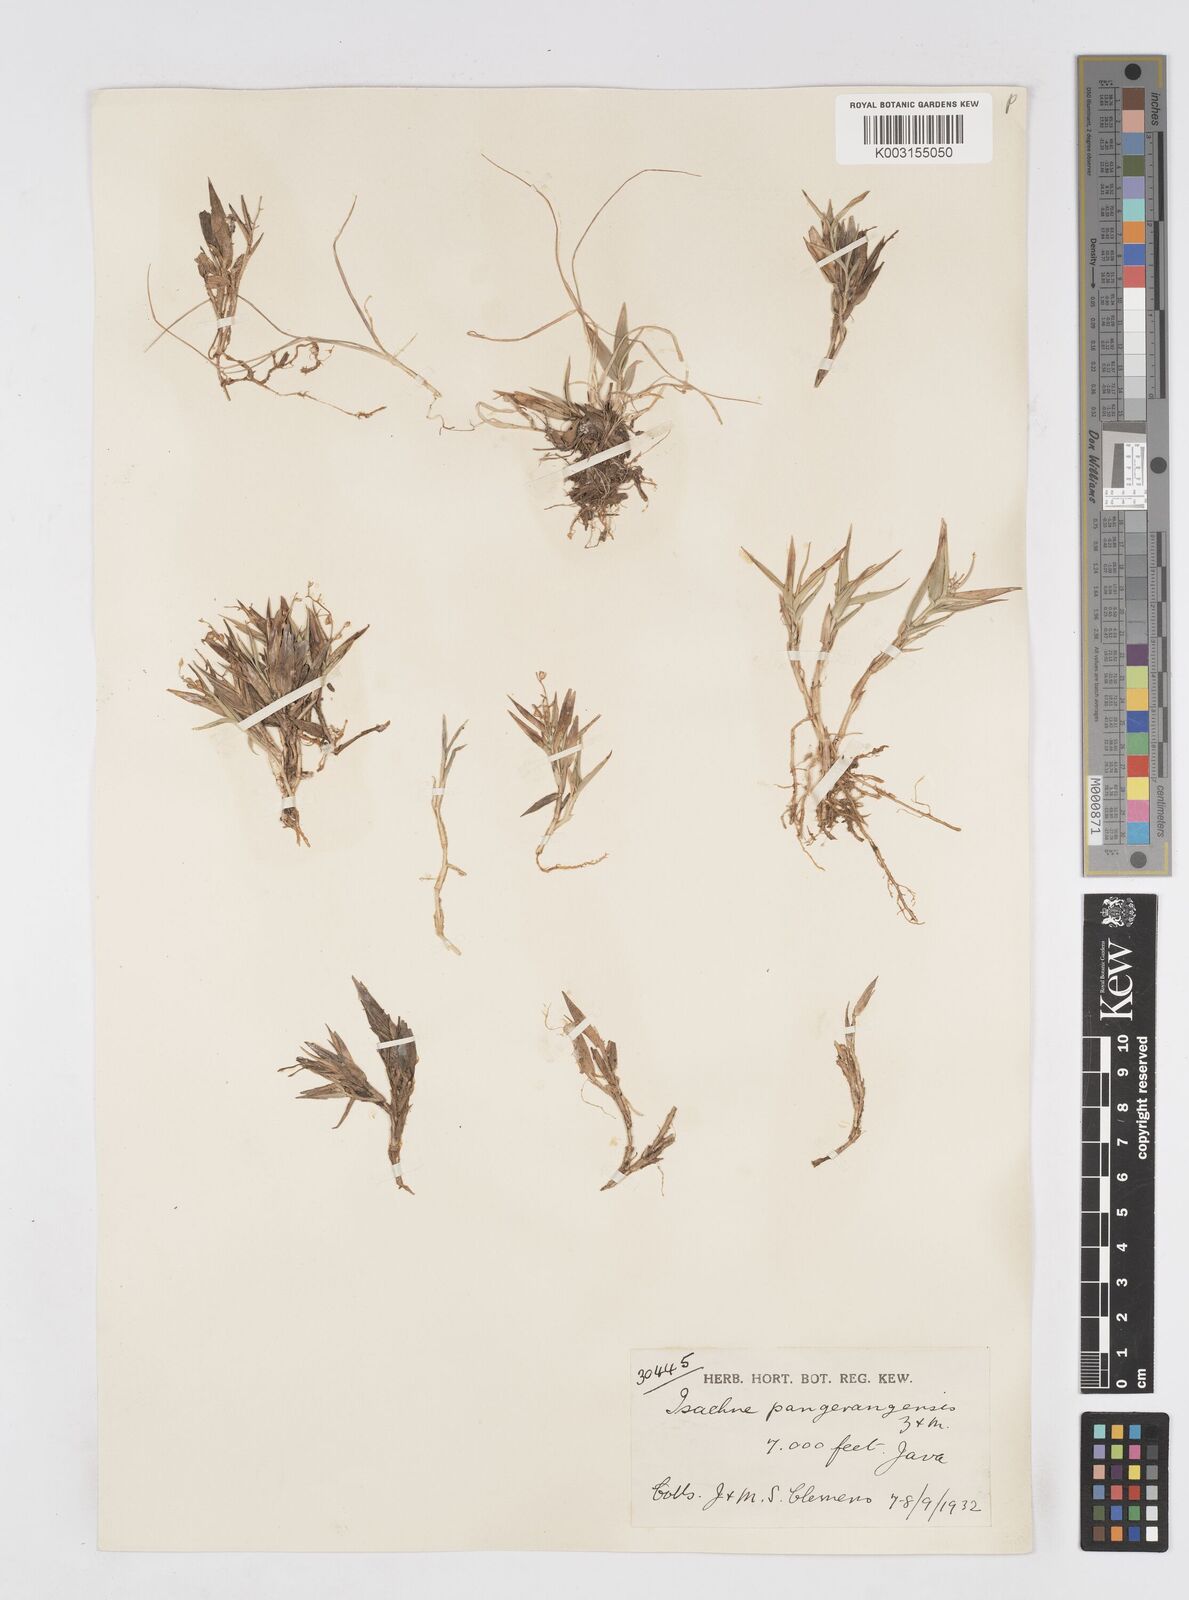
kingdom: Plantae
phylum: Tracheophyta
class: Liliopsida
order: Poales
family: Poaceae
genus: Isachne
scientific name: Isachne pangerangensis
